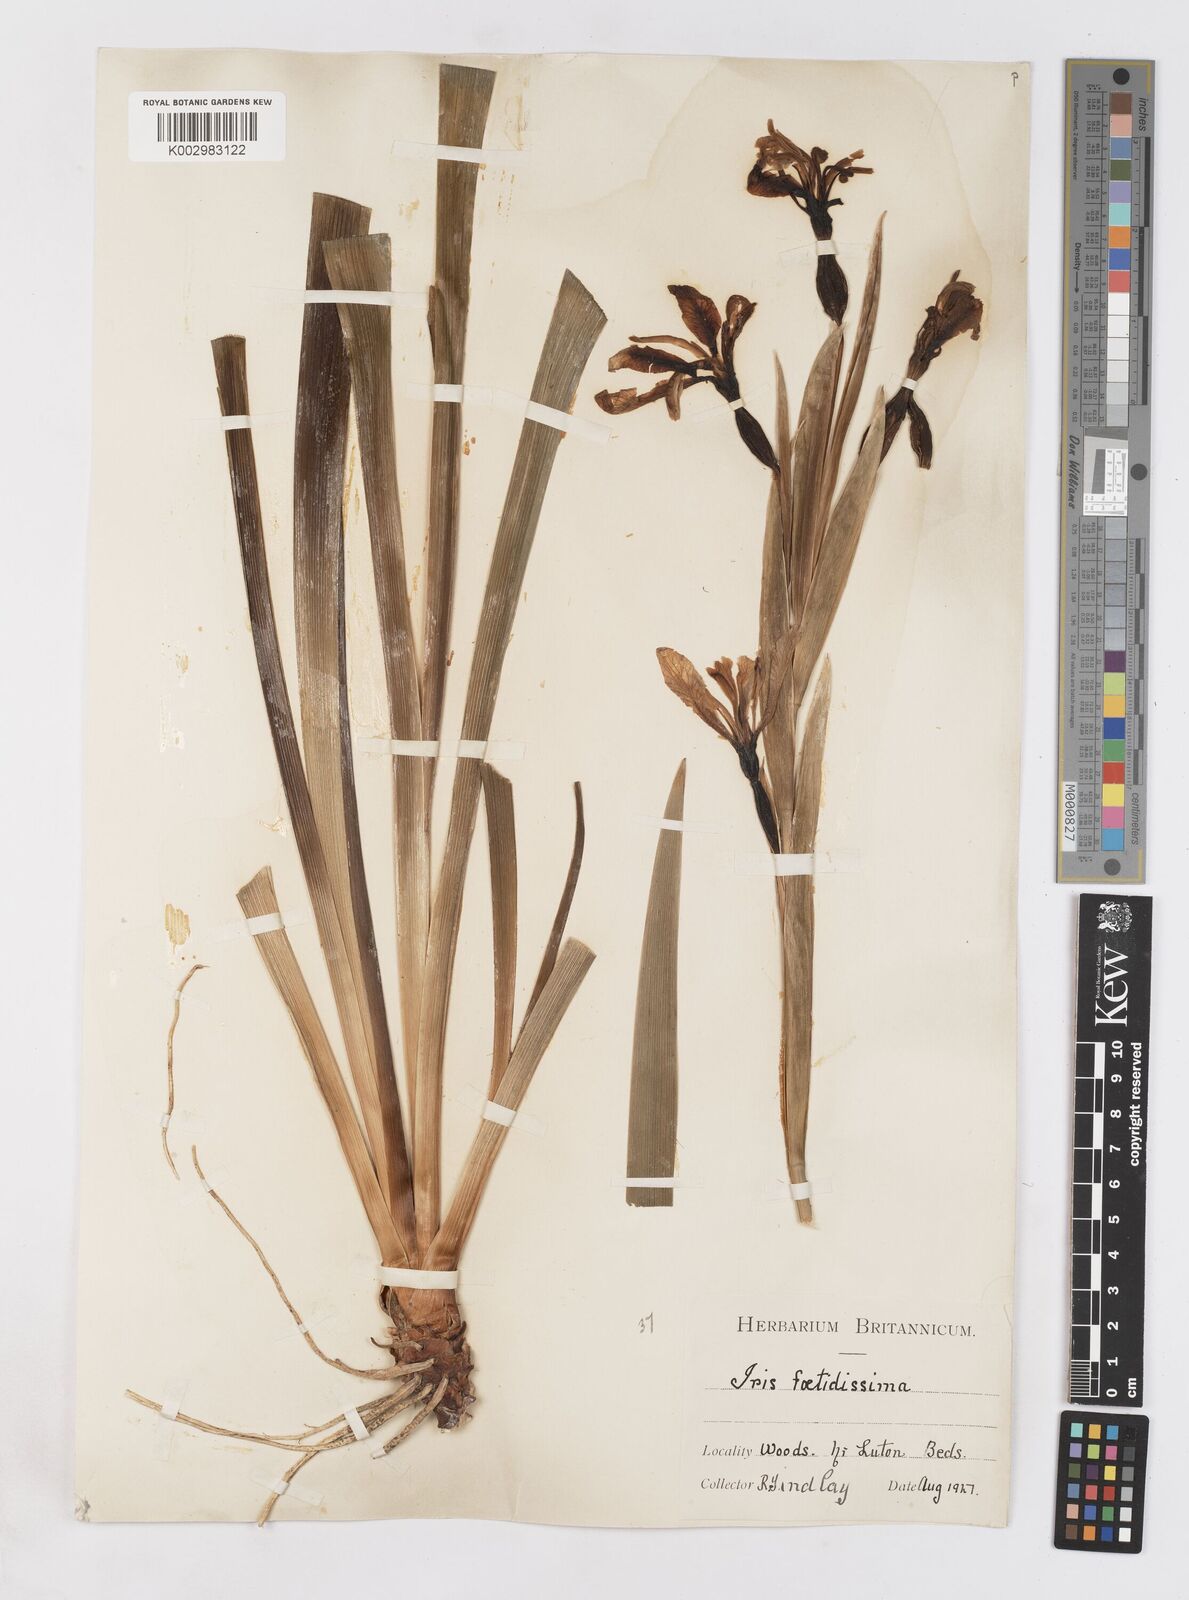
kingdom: Plantae
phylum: Tracheophyta
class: Liliopsida
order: Asparagales
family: Iridaceae
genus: Iris
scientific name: Iris foetidissima
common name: Stinking iris
